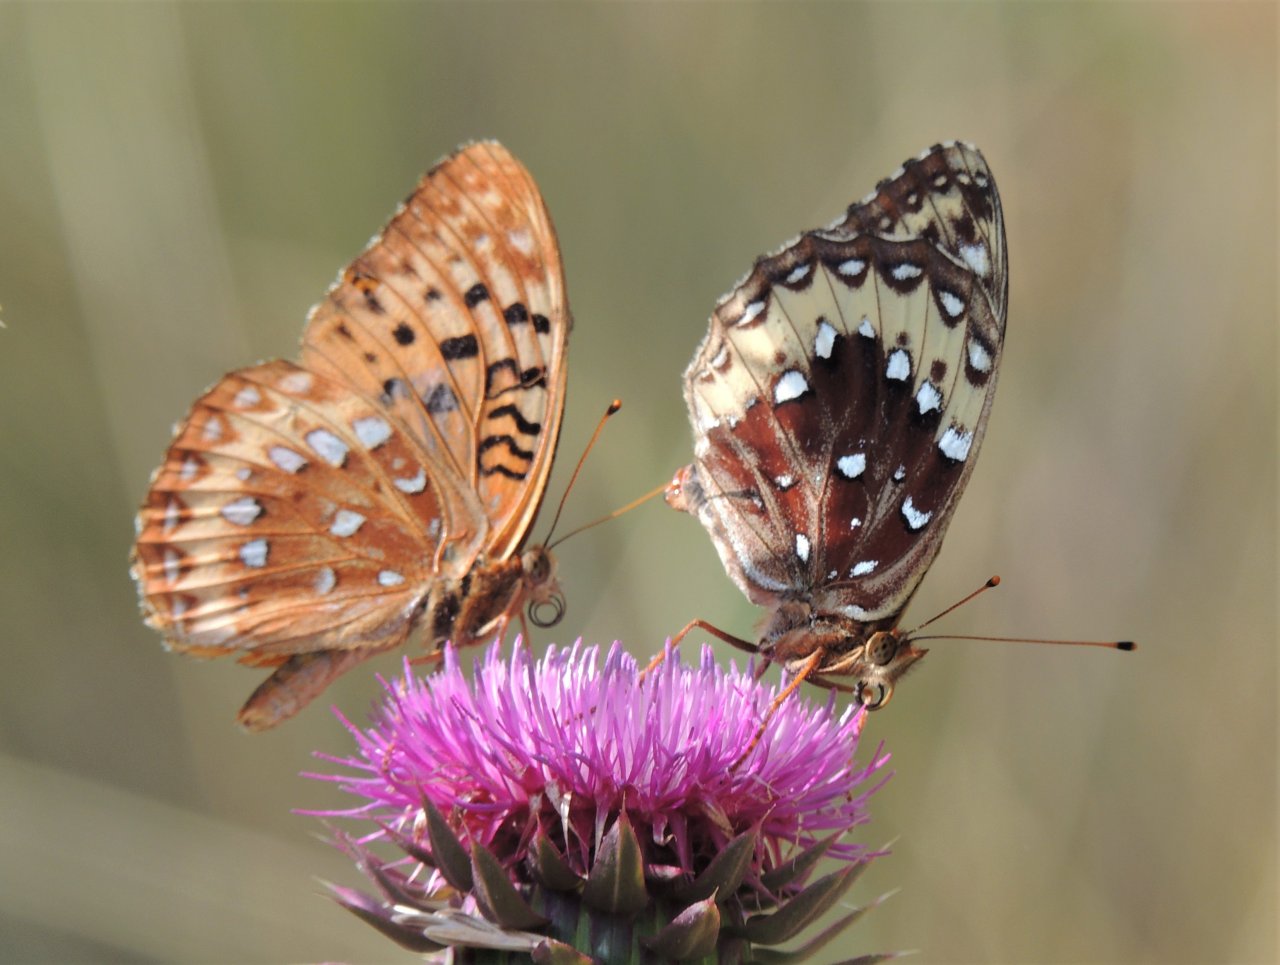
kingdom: Animalia
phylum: Arthropoda
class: Insecta
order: Lepidoptera
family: Nymphalidae
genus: Speyeria
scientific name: Speyeria cybele
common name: Great Spangled Fritillary
